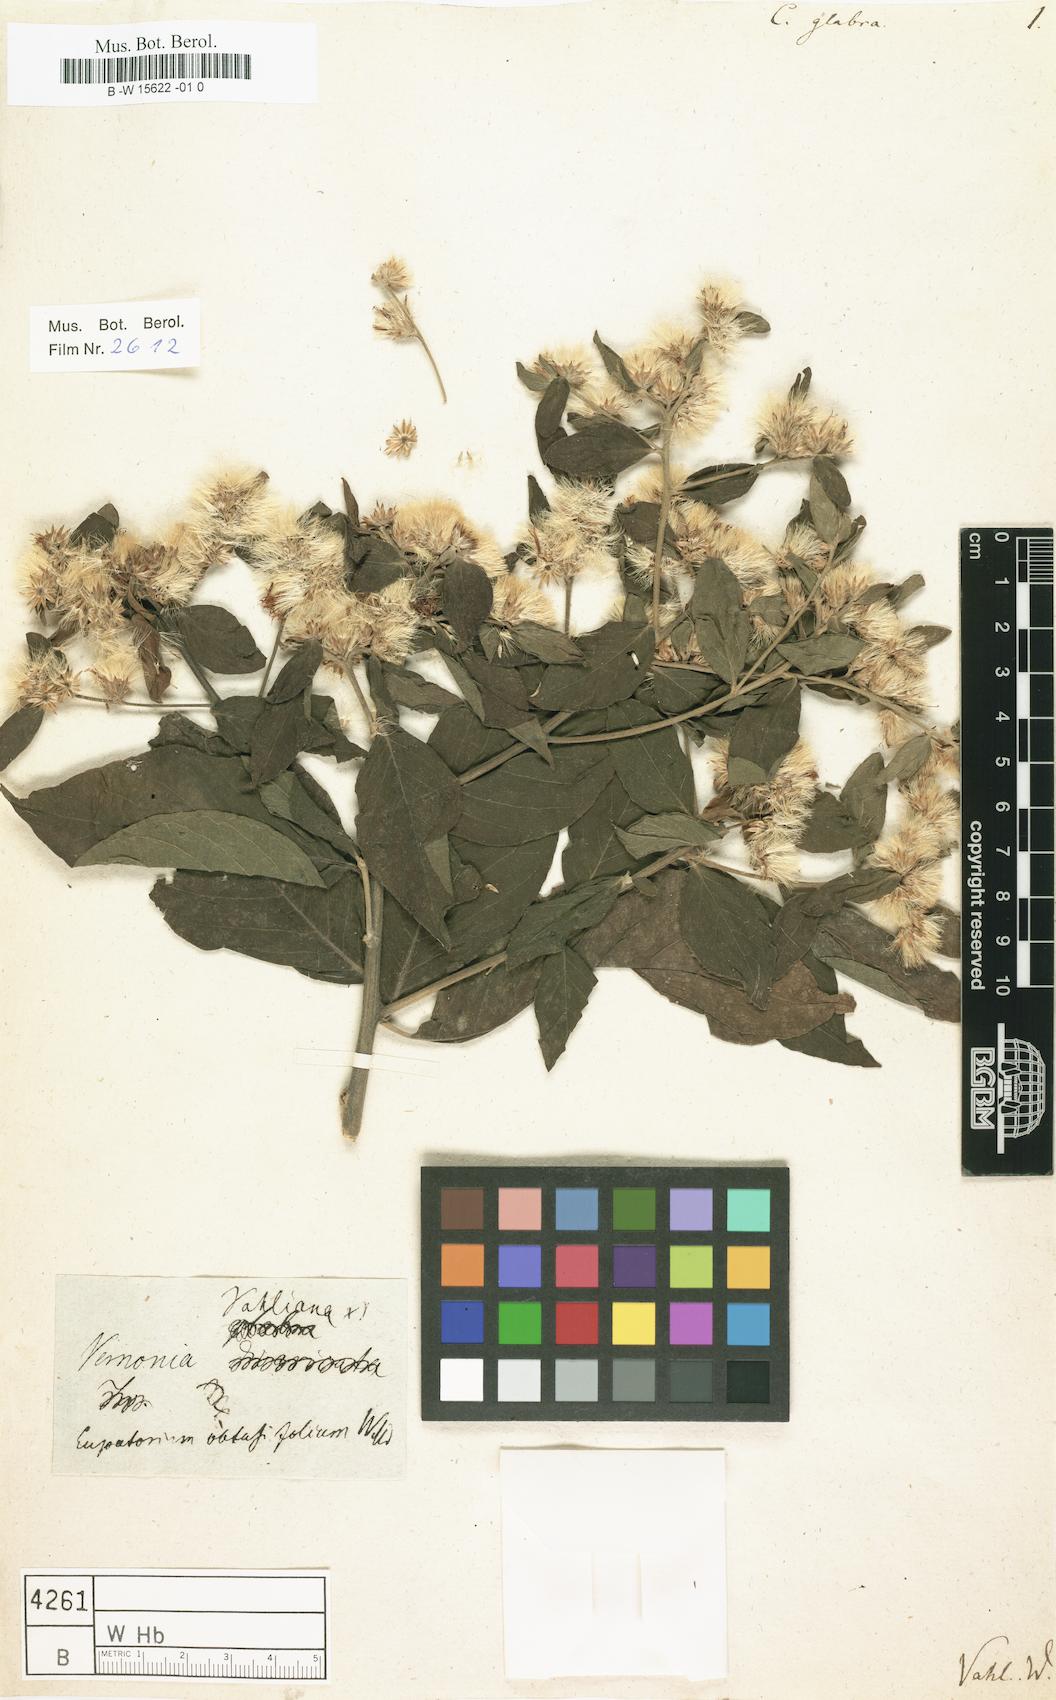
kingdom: Plantae
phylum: Tracheophyta
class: Magnoliopsida
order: Asterales
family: Asteraceae
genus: Lepidaploa
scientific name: Lepidaploa glabra
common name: Santa maria
